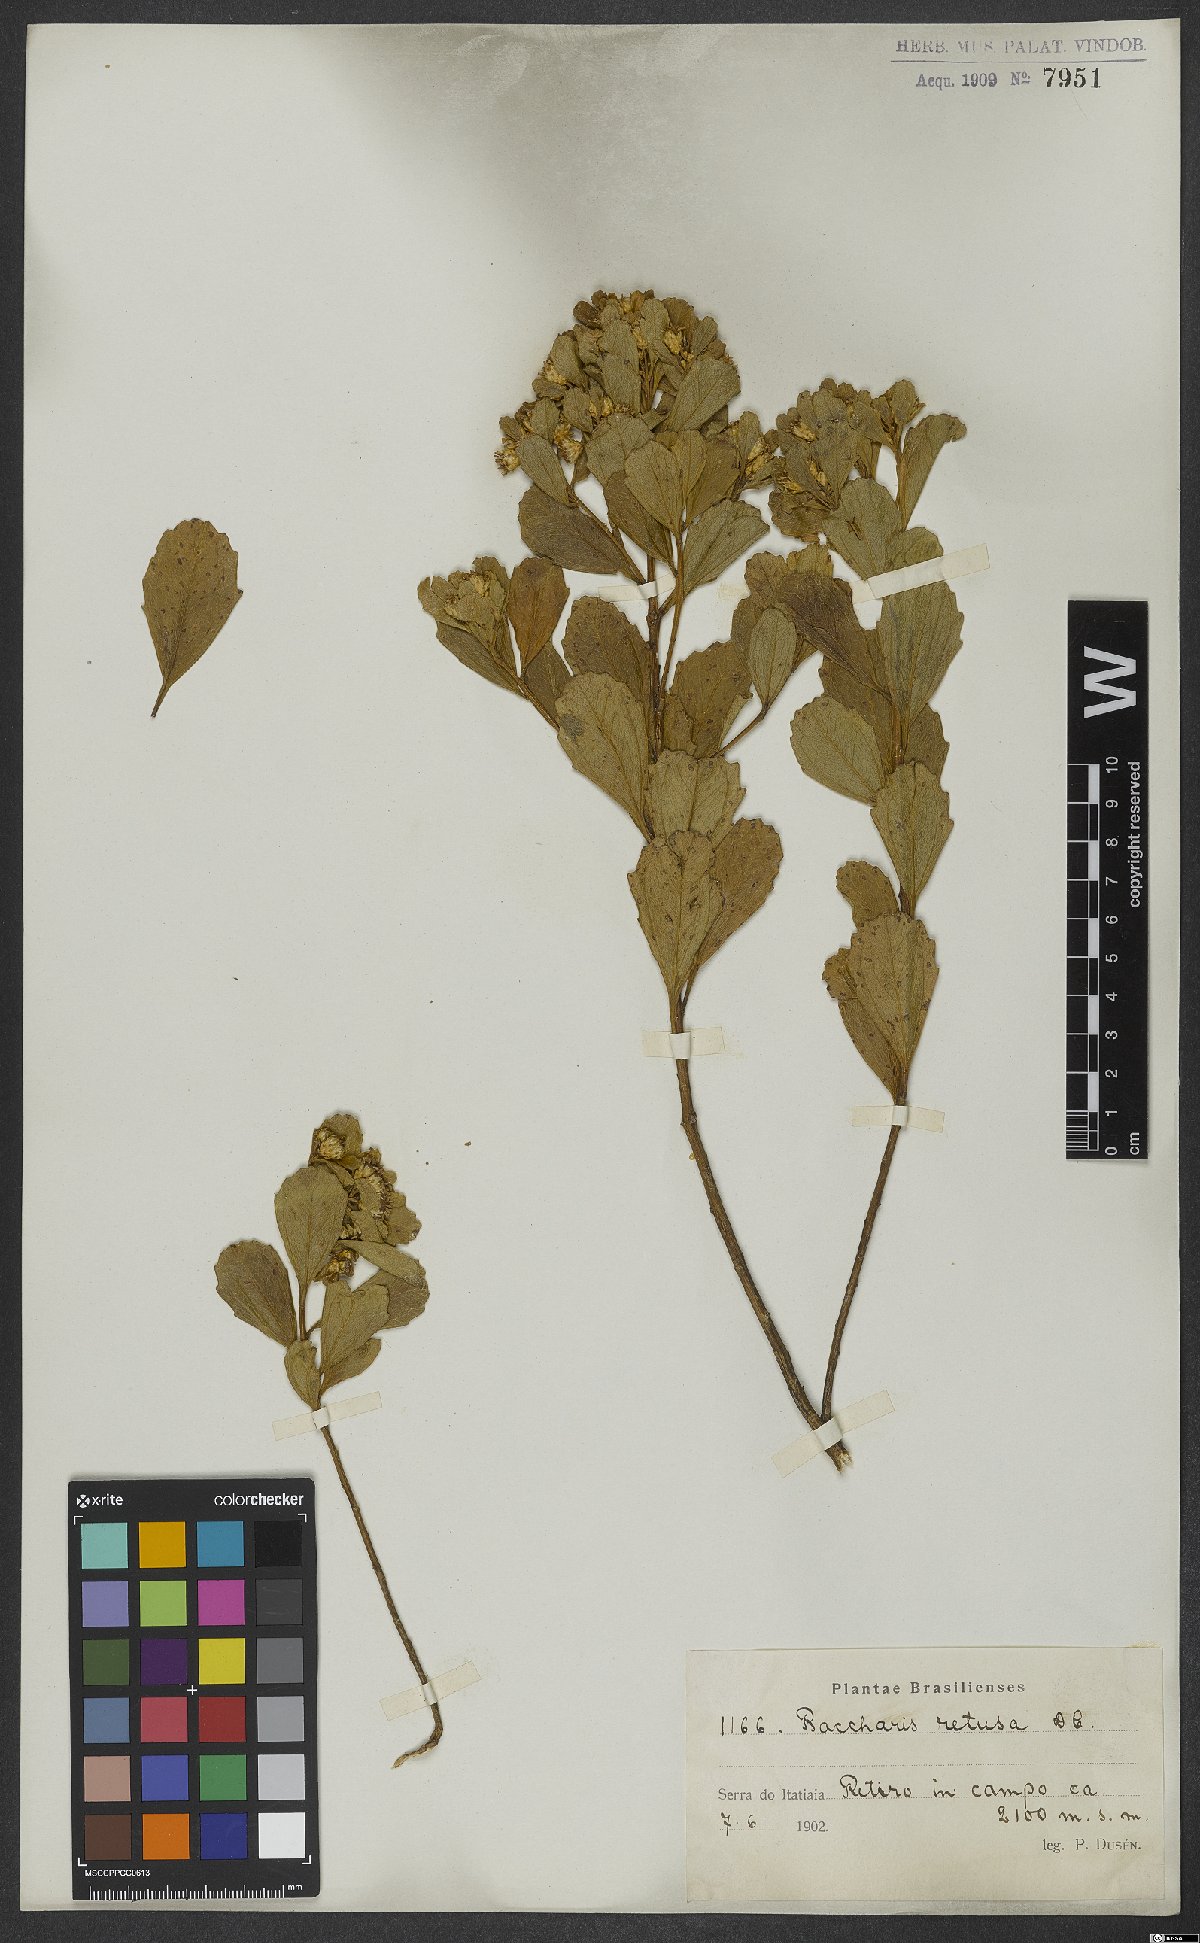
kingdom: Plantae
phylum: Tracheophyta
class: Magnoliopsida
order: Asterales
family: Asteraceae
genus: Baccharis
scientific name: Baccharis retusa
